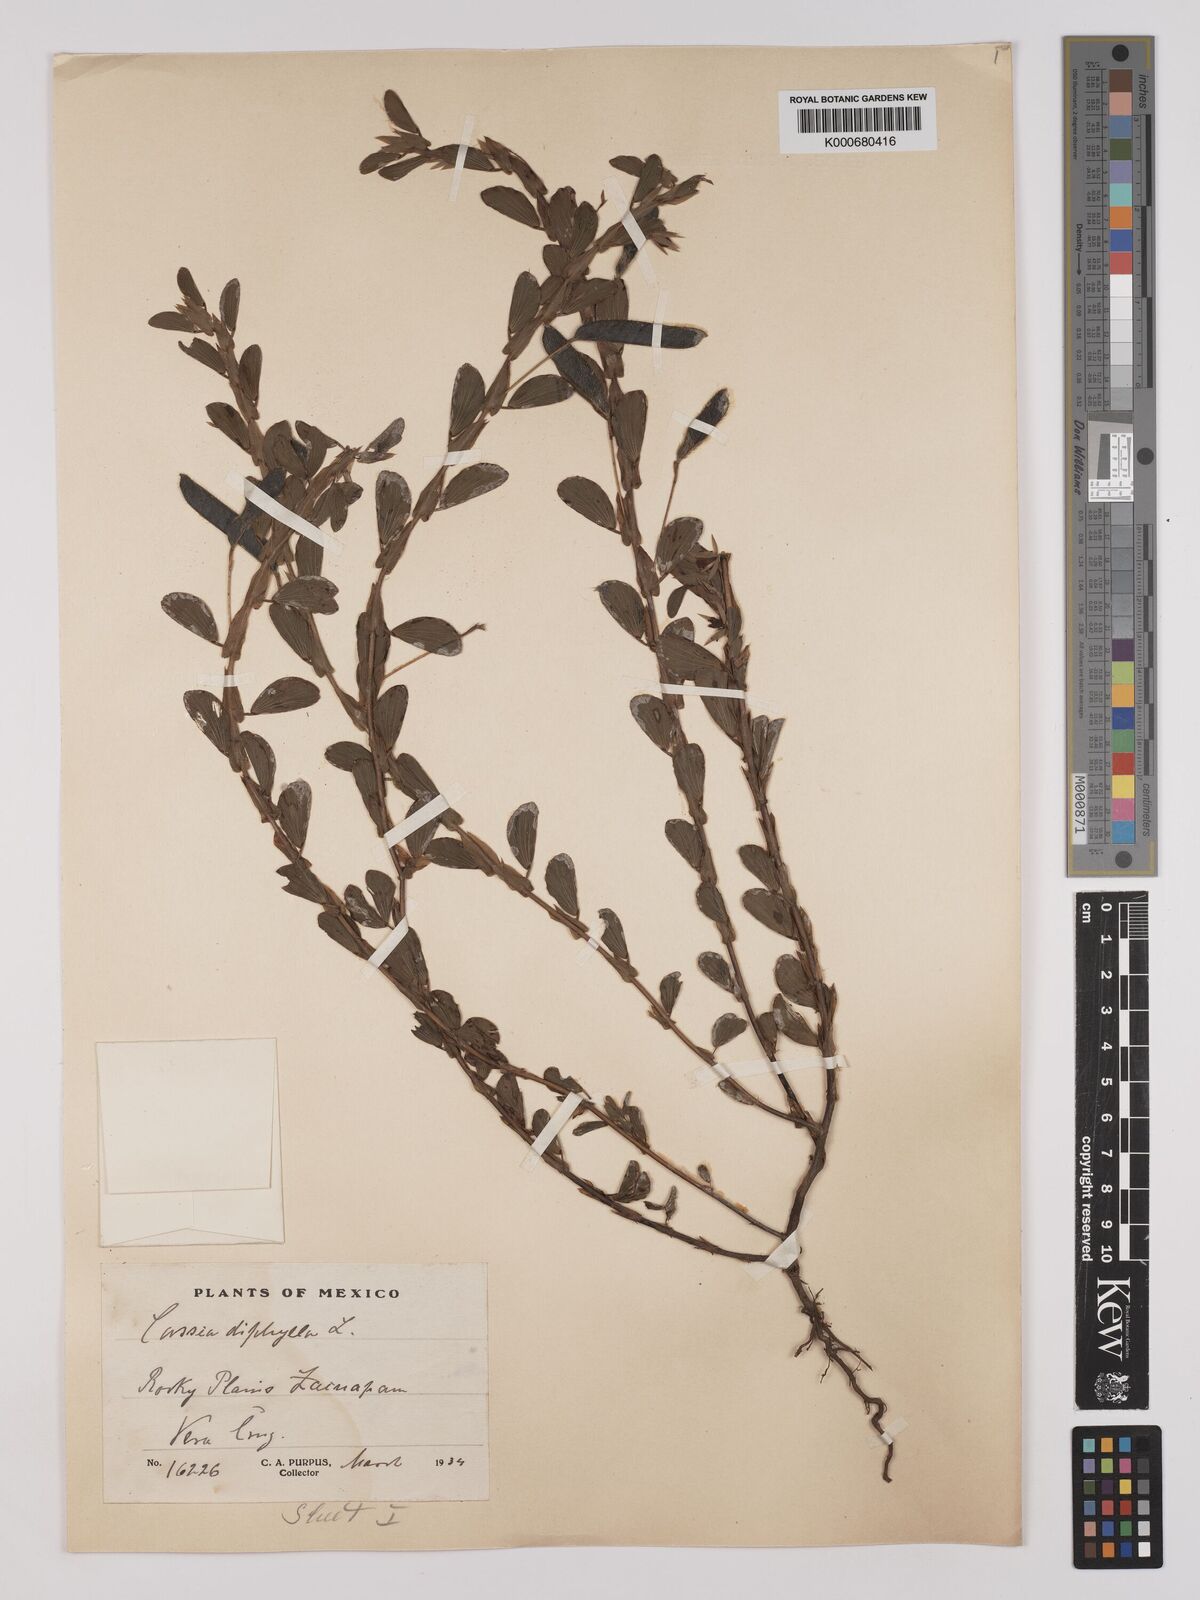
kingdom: Plantae
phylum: Tracheophyta
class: Magnoliopsida
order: Fabales
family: Fabaceae
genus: Chamaecrista
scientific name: Chamaecrista diphylla
